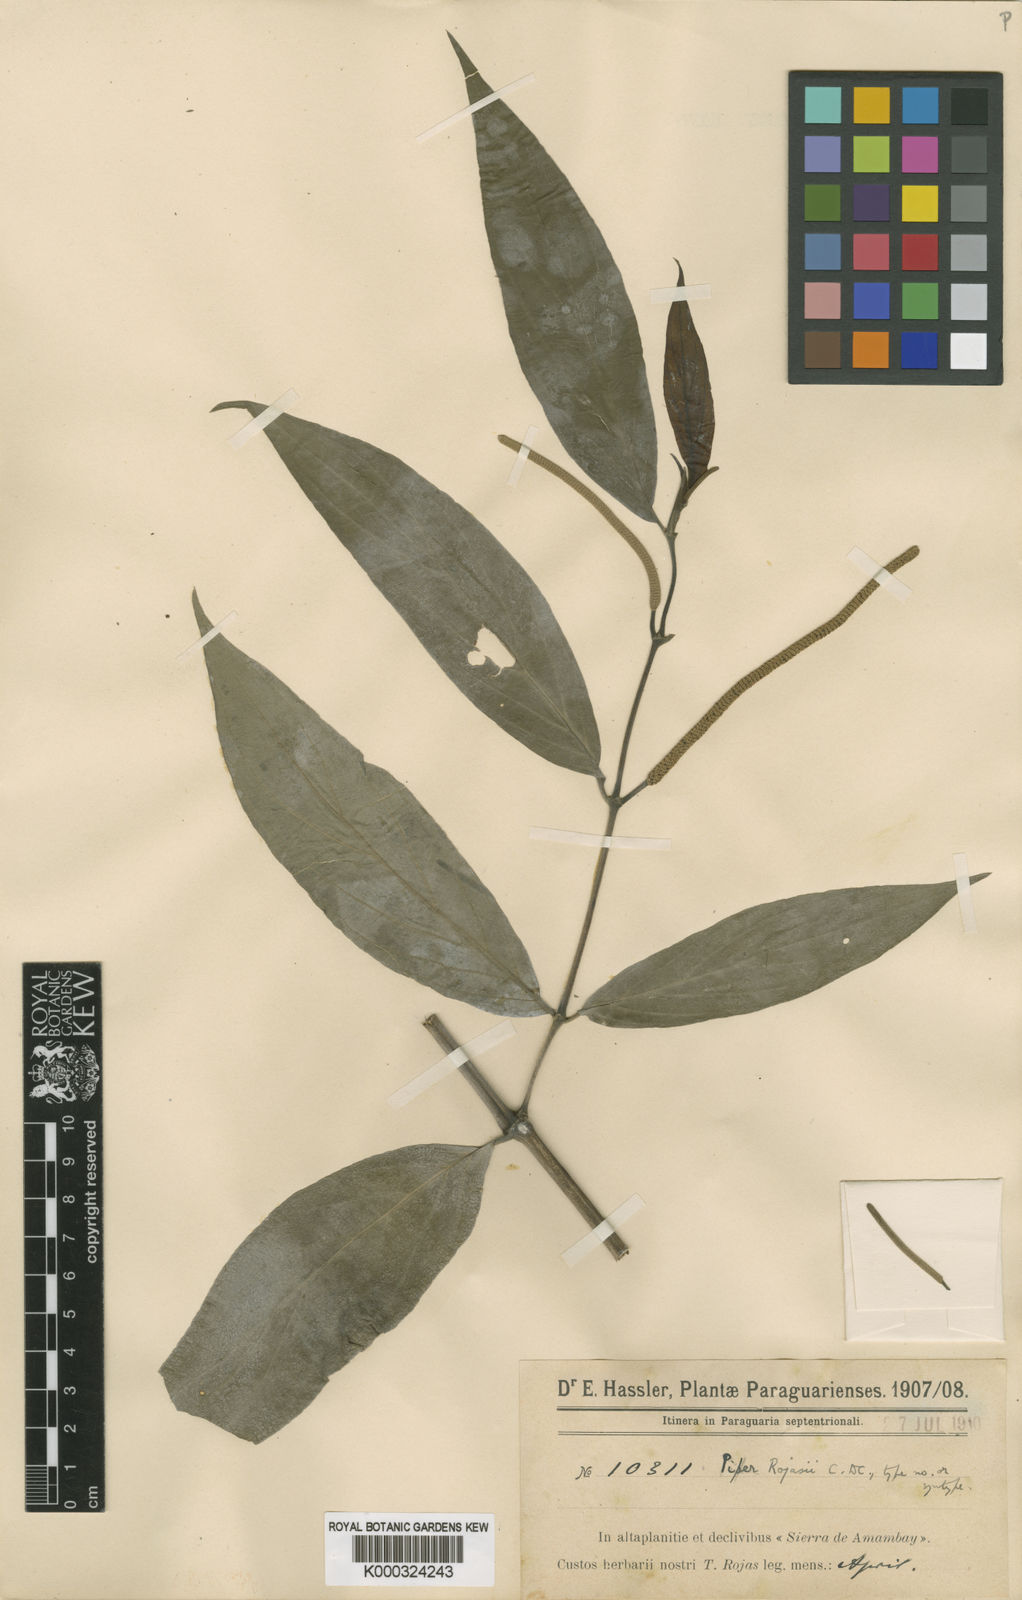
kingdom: Plantae
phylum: Tracheophyta
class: Magnoliopsida
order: Piperales
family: Piperaceae
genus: Piper
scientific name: Piper rojasii
